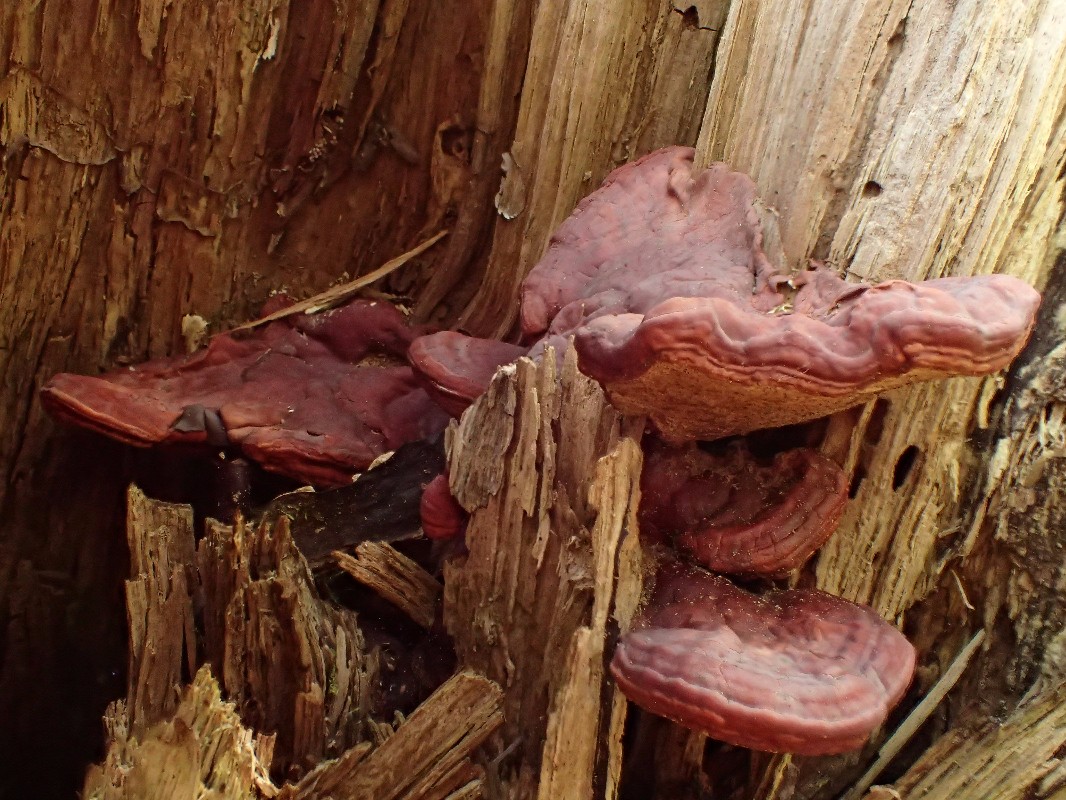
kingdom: Fungi
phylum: Basidiomycota
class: Agaricomycetes
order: Polyporales
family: Polyporaceae
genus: Ganoderma
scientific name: Ganoderma lucidum
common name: skinnende lakporesvamp
